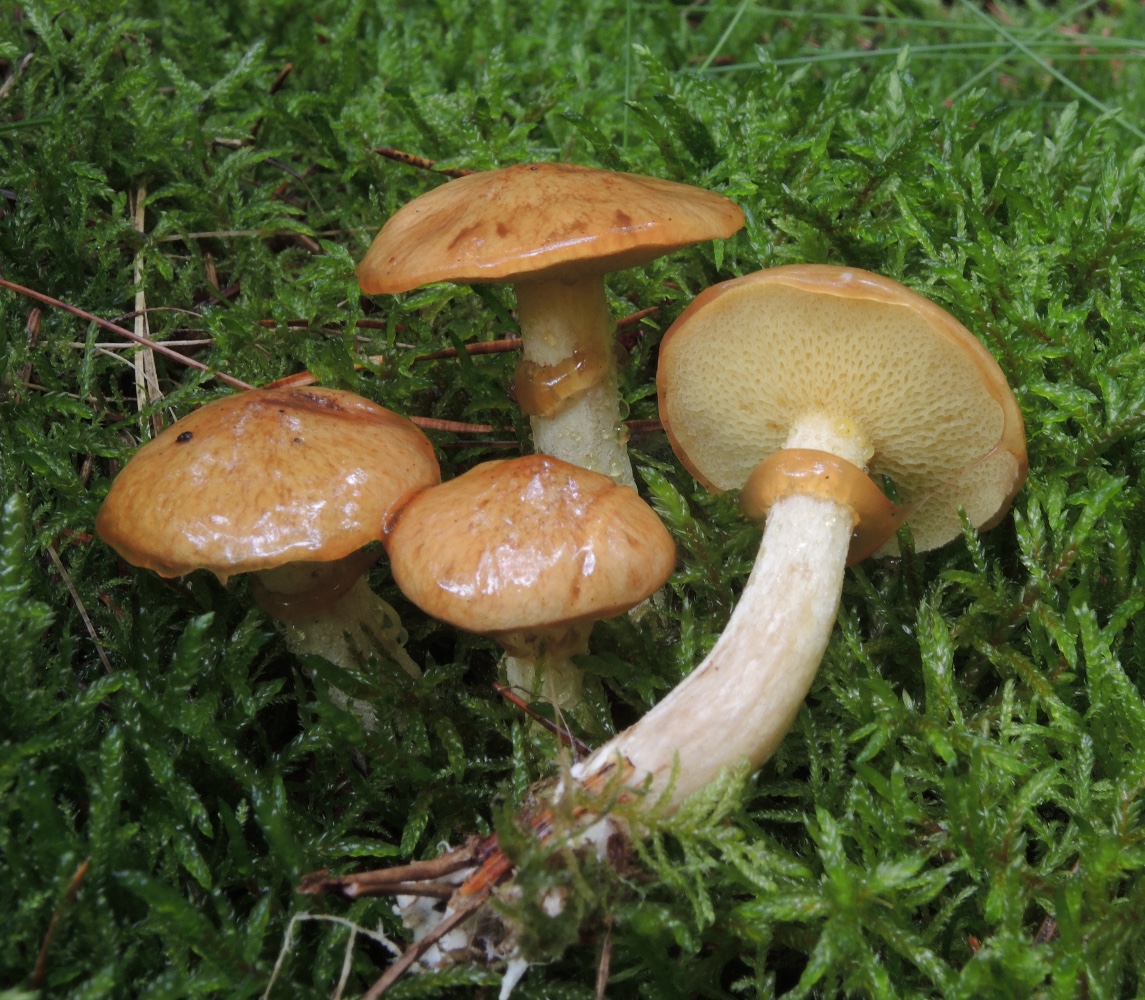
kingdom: Fungi
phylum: Basidiomycota
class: Agaricomycetes
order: Boletales
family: Suillaceae
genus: Suillus
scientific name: Suillus flavidus
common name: mose-slimrørhat
